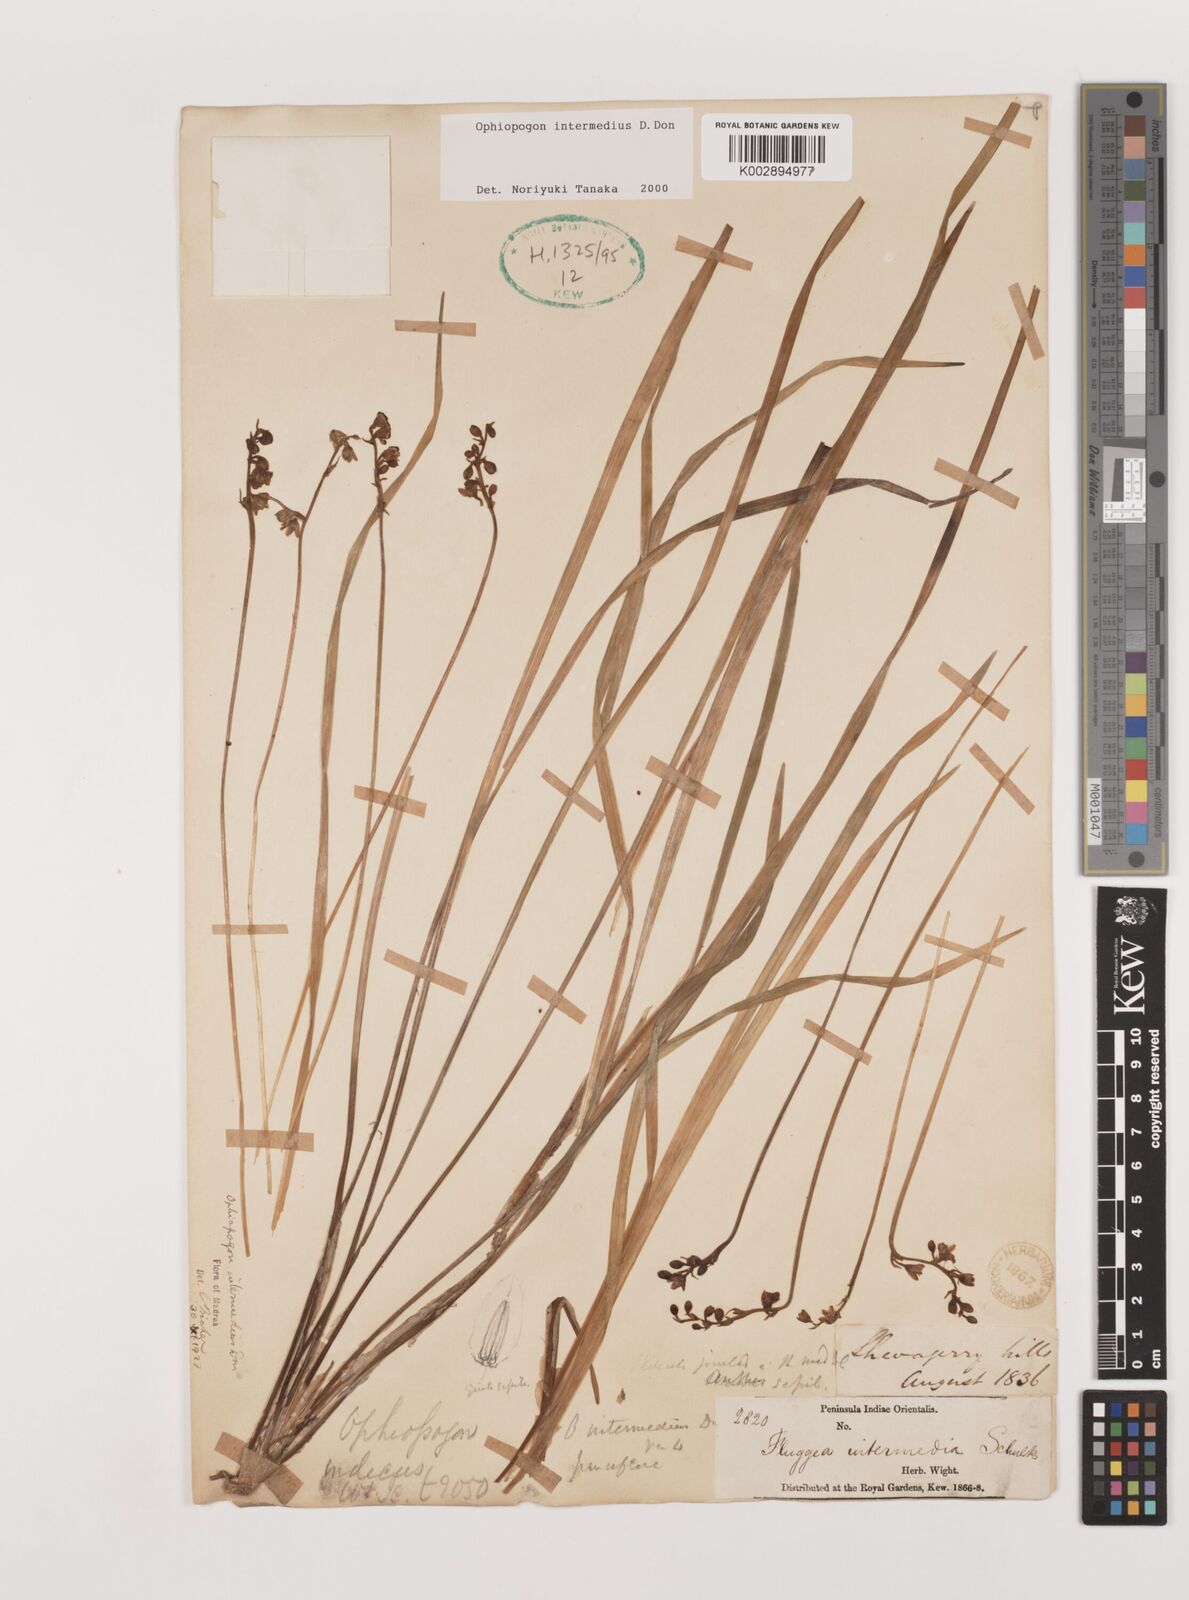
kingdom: Plantae
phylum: Tracheophyta
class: Liliopsida
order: Asparagales
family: Asparagaceae
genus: Ophiopogon
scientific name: Ophiopogon intermedius
